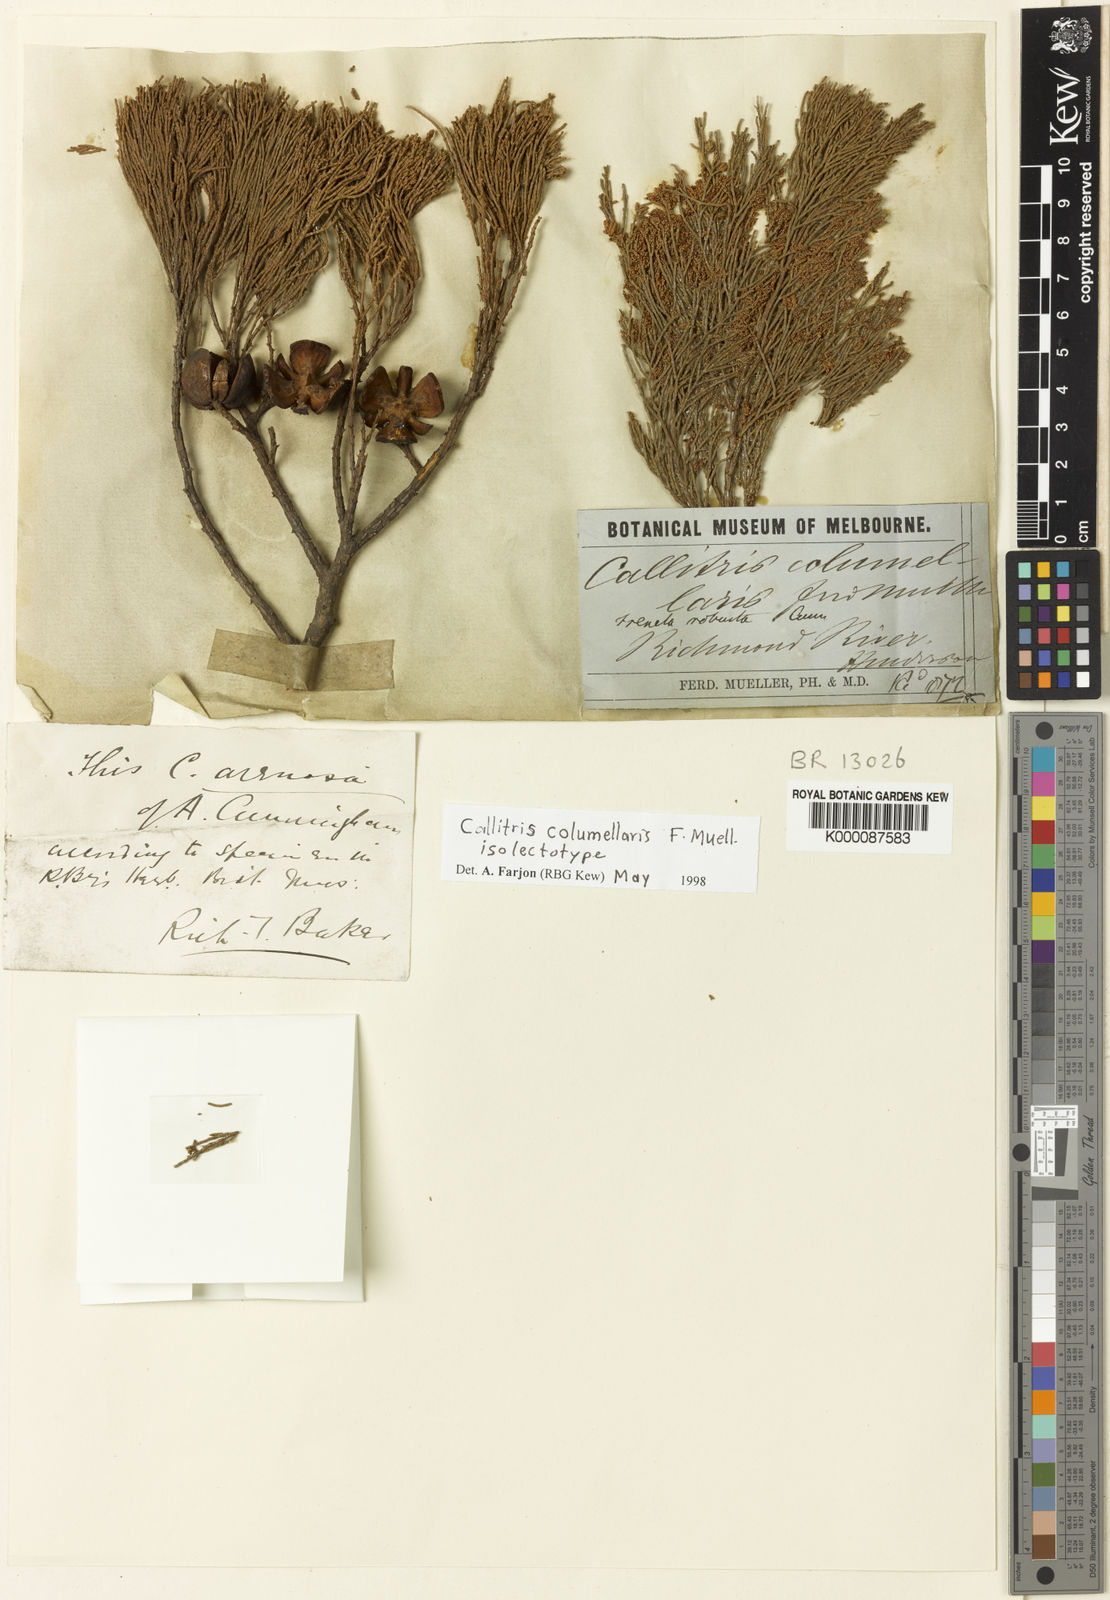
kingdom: Plantae
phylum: Tracheophyta
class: Pinopsida
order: Pinales
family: Cupressaceae
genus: Callitris
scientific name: Callitris columellaris
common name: White cypress-pine
